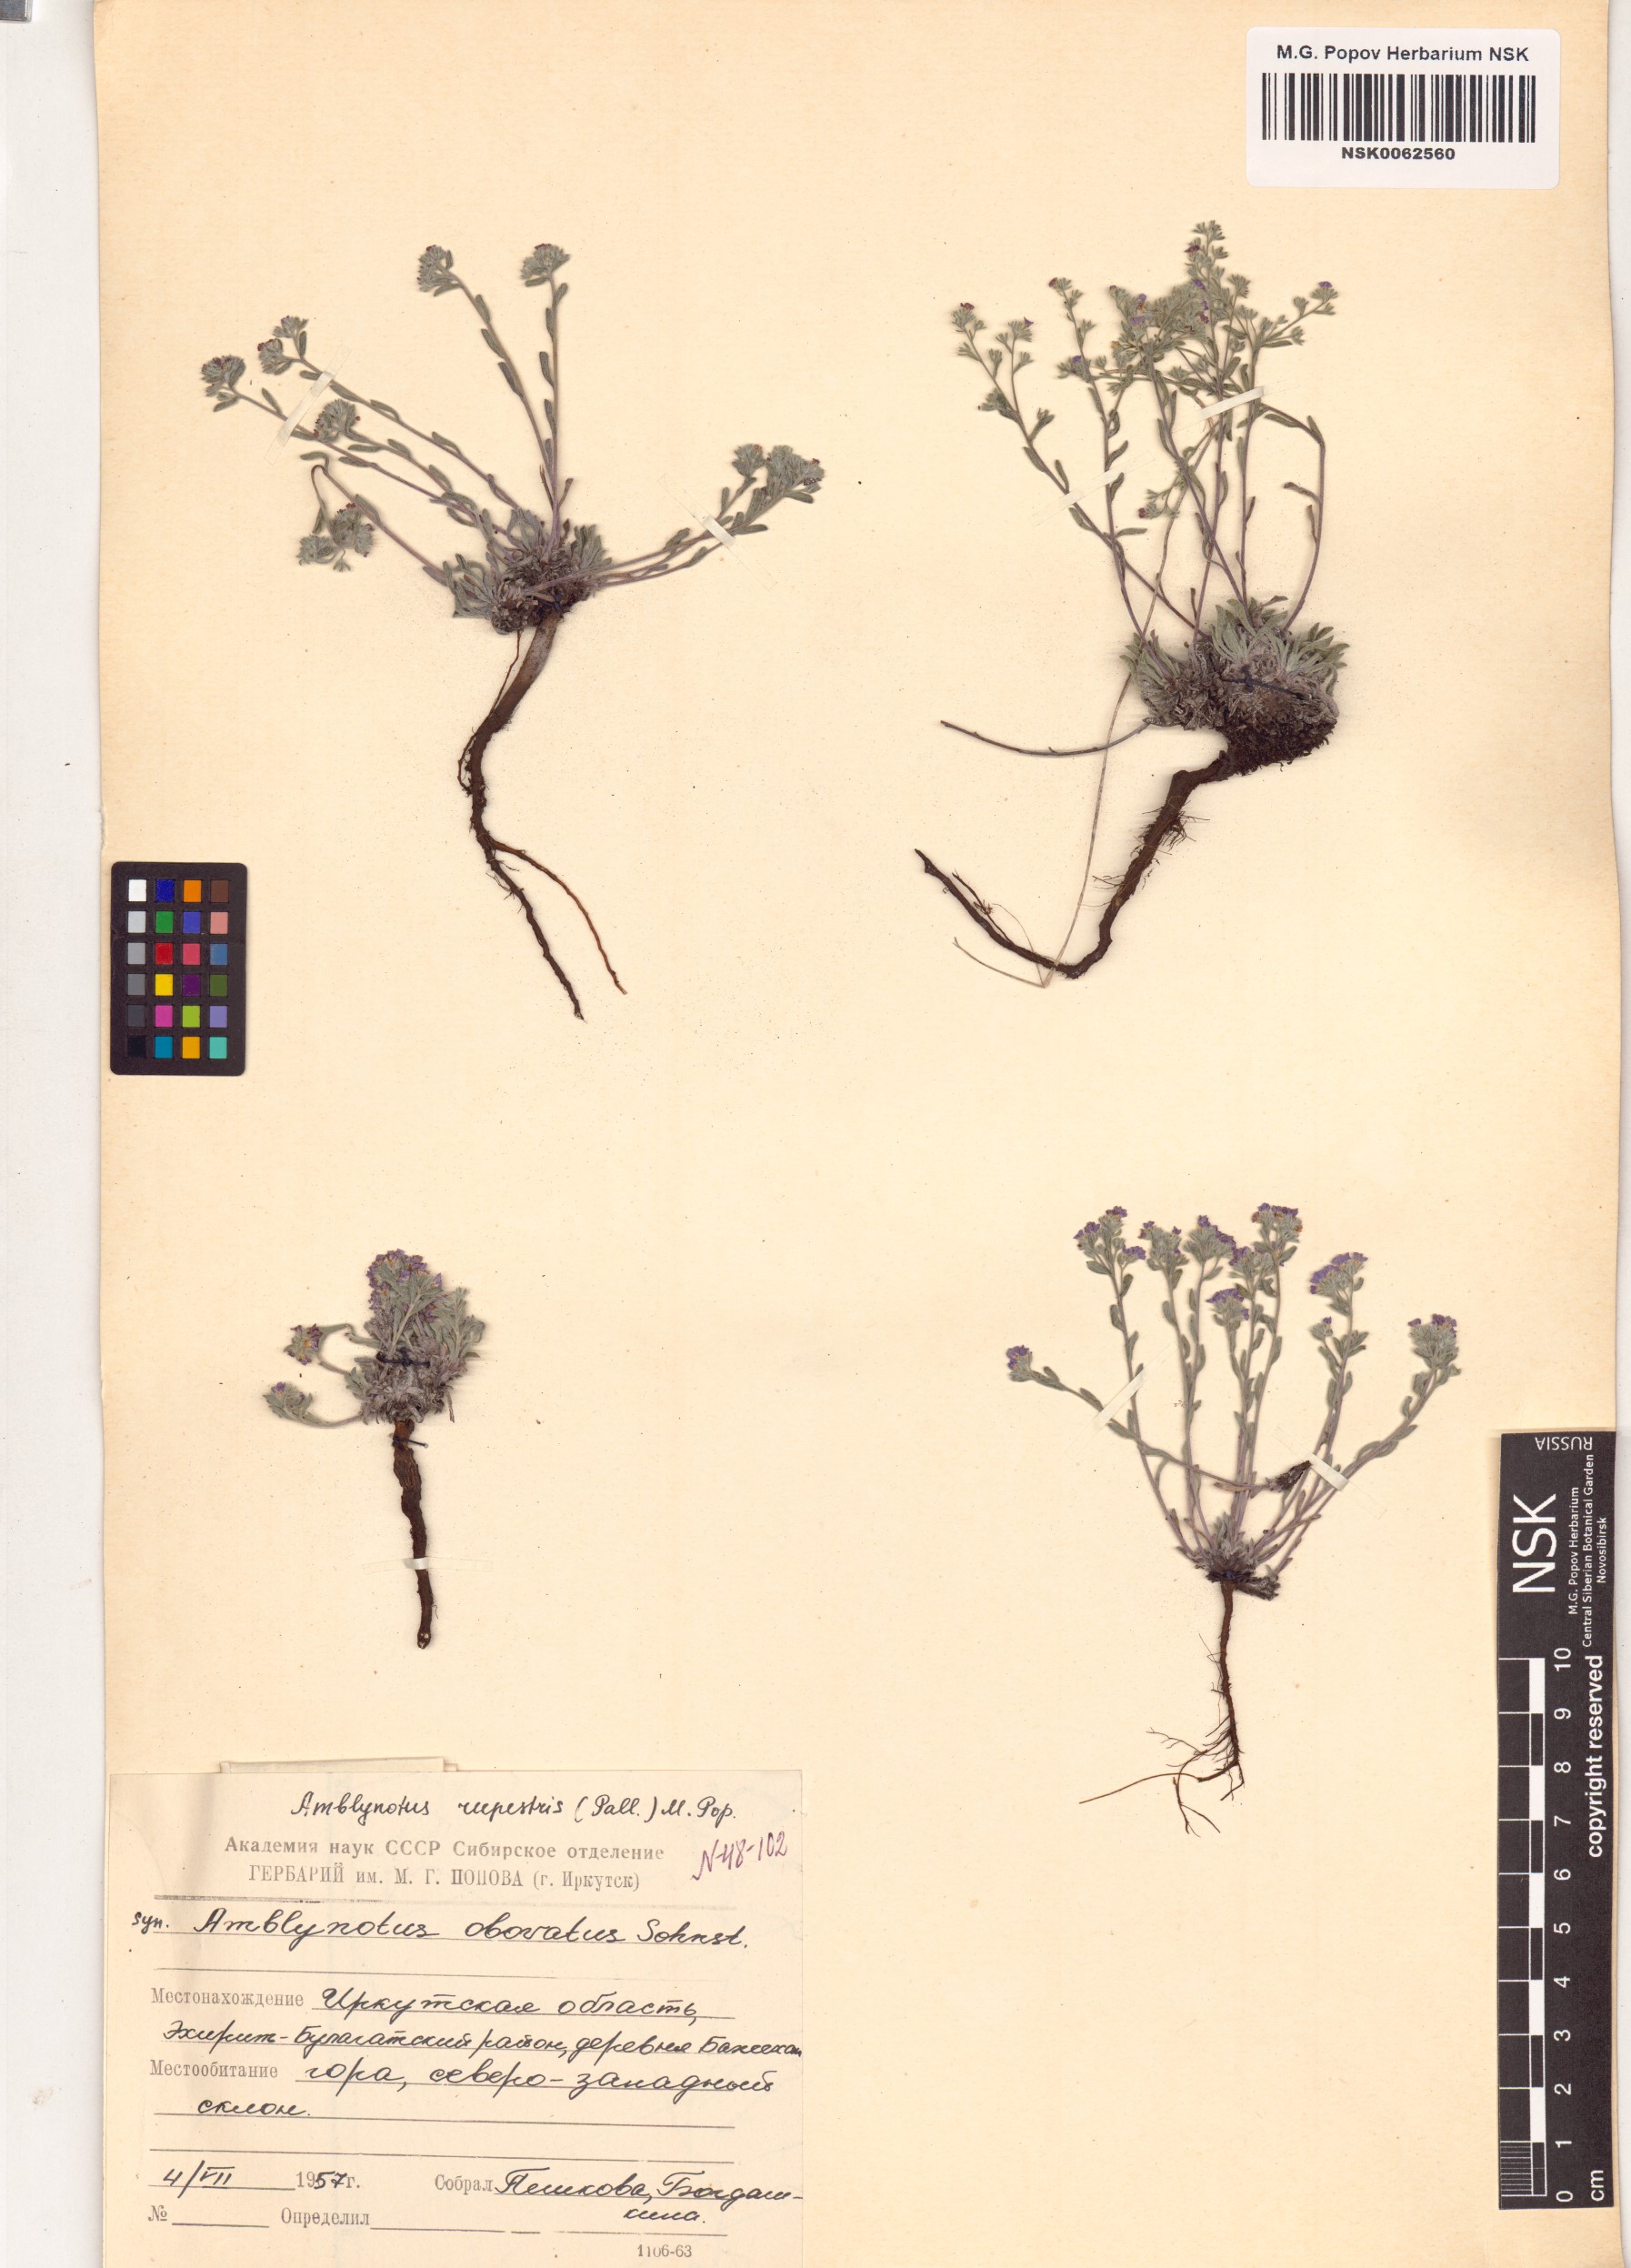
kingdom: Plantae
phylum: Tracheophyta
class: Magnoliopsida
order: Boraginales
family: Boraginaceae
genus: Eritrichium
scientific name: Eritrichium rupestre
